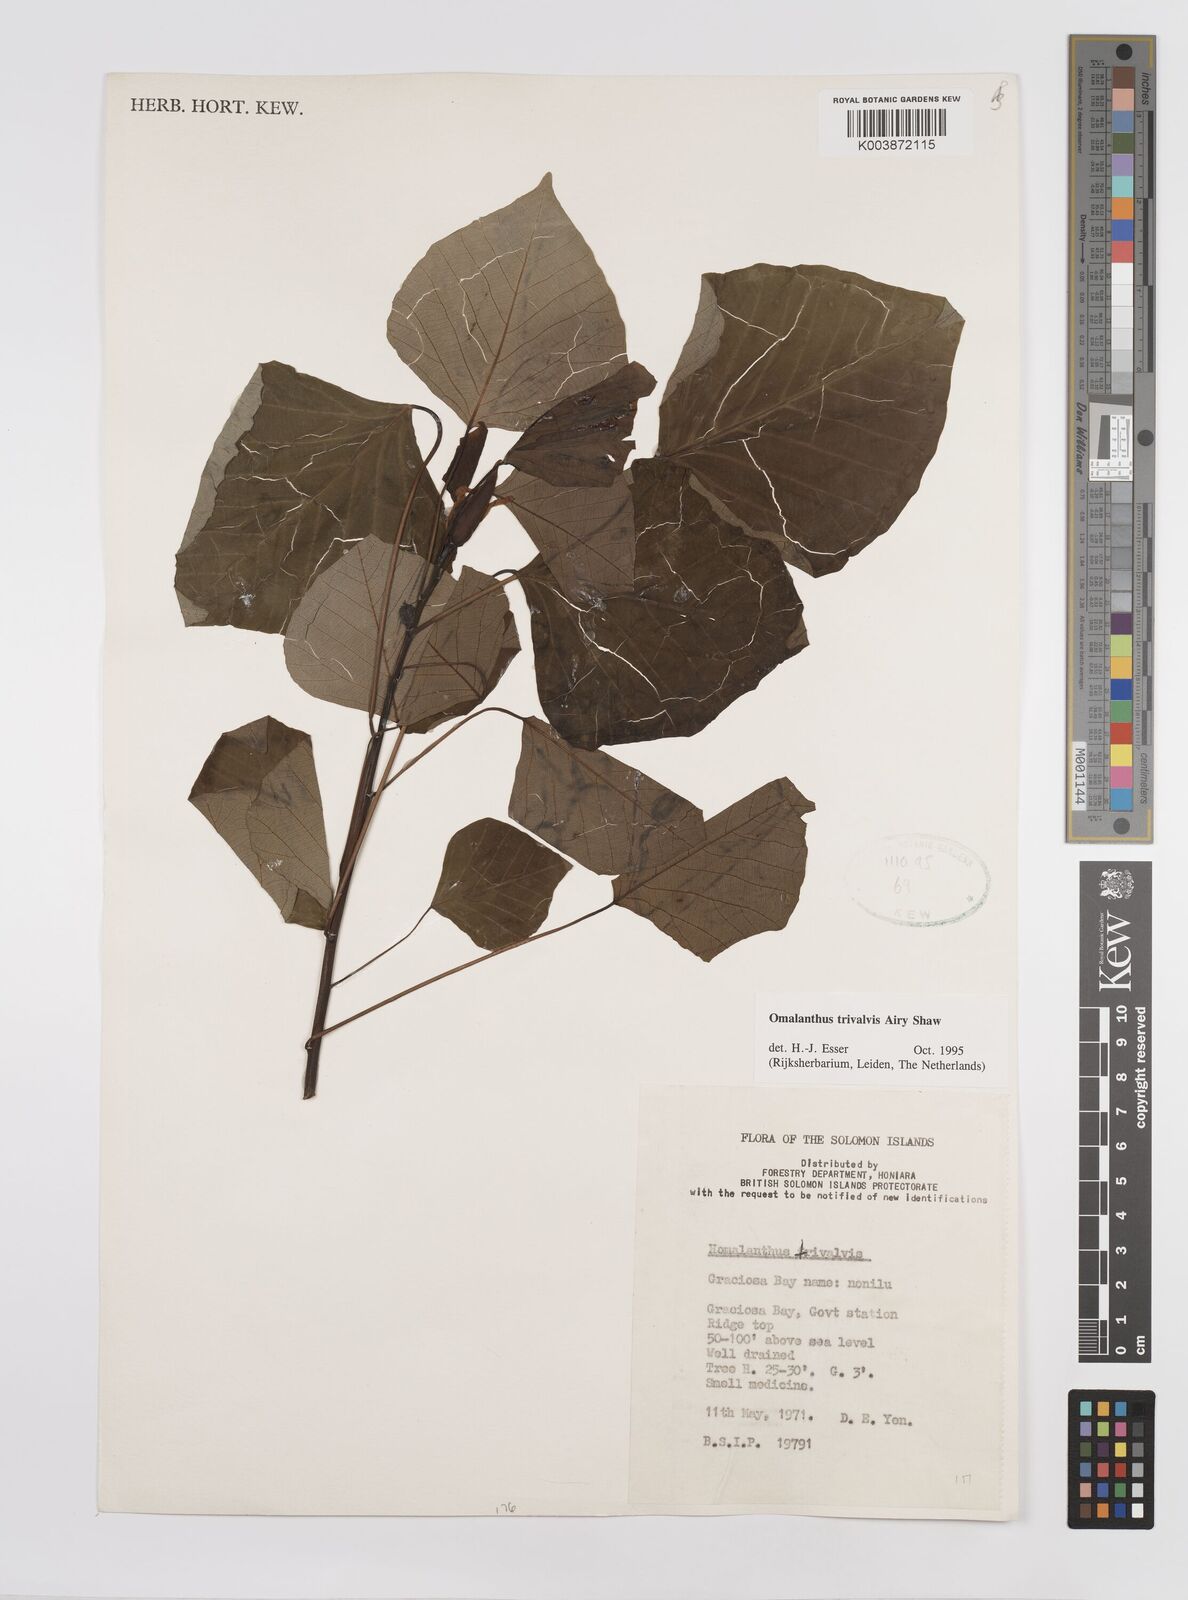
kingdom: Plantae
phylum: Tracheophyta
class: Magnoliopsida
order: Malpighiales
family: Euphorbiaceae
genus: Homalanthus
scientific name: Homalanthus trivalvis
